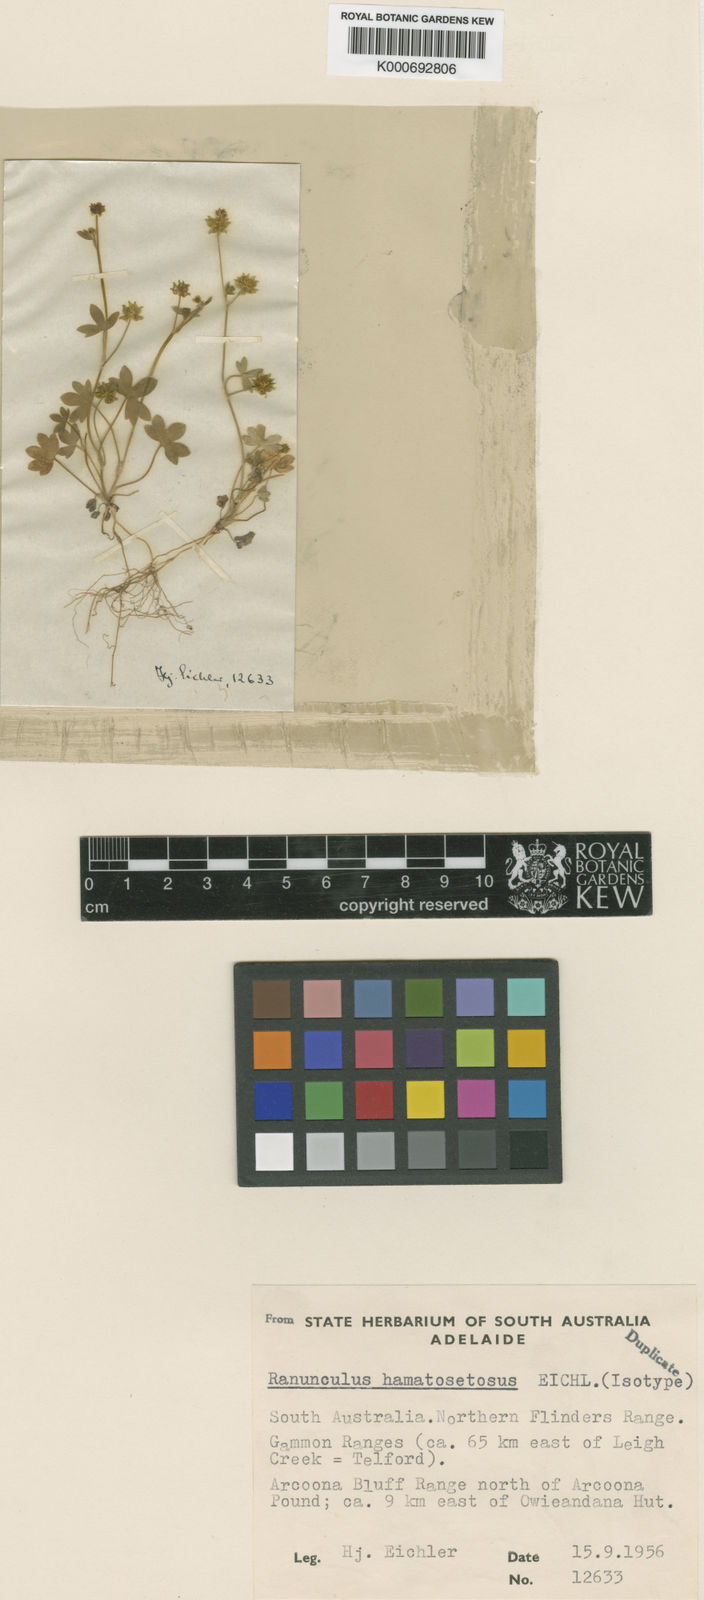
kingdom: Plantae
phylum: Tracheophyta
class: Magnoliopsida
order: Ranunculales
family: Ranunculaceae
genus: Ranunculus
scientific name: Ranunculus hamatosetosus
